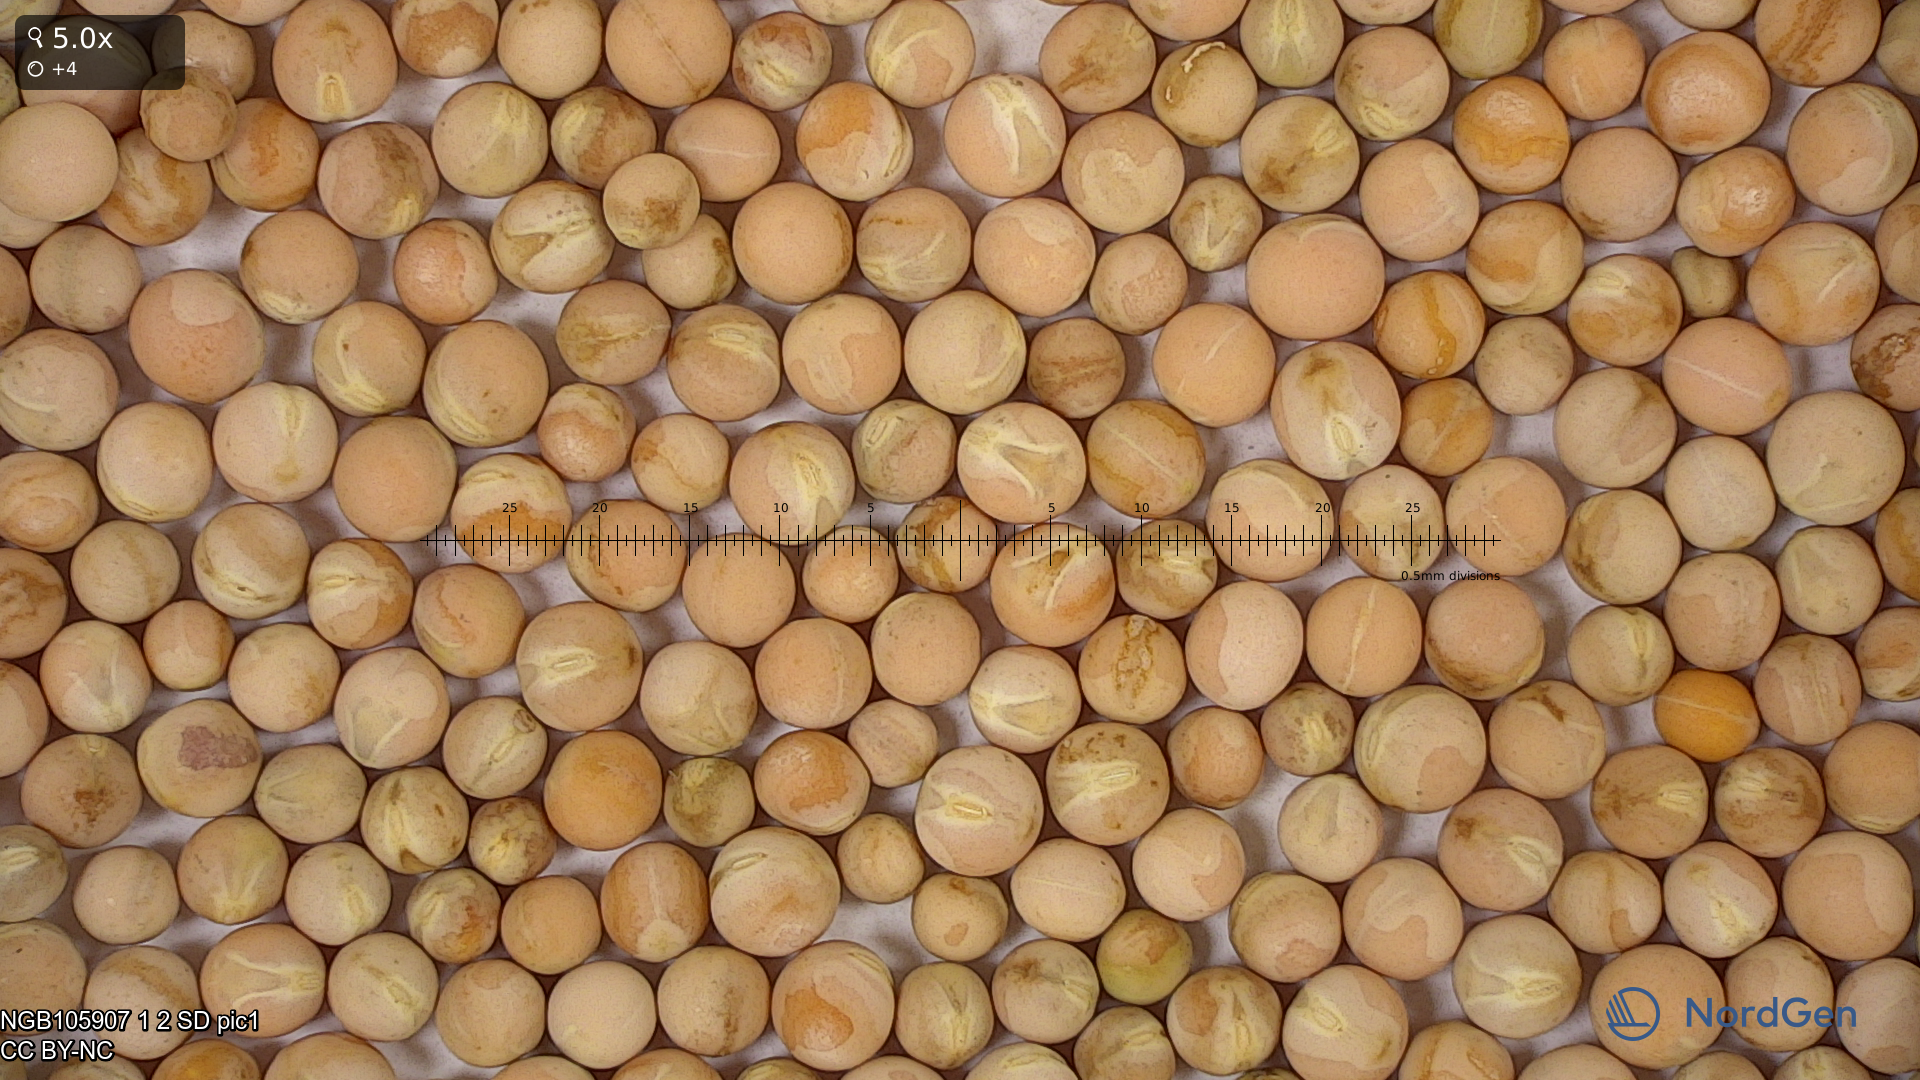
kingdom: Plantae
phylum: Tracheophyta
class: Magnoliopsida
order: Fabales
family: Fabaceae
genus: Lathyrus
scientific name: Lathyrus oleraceus
